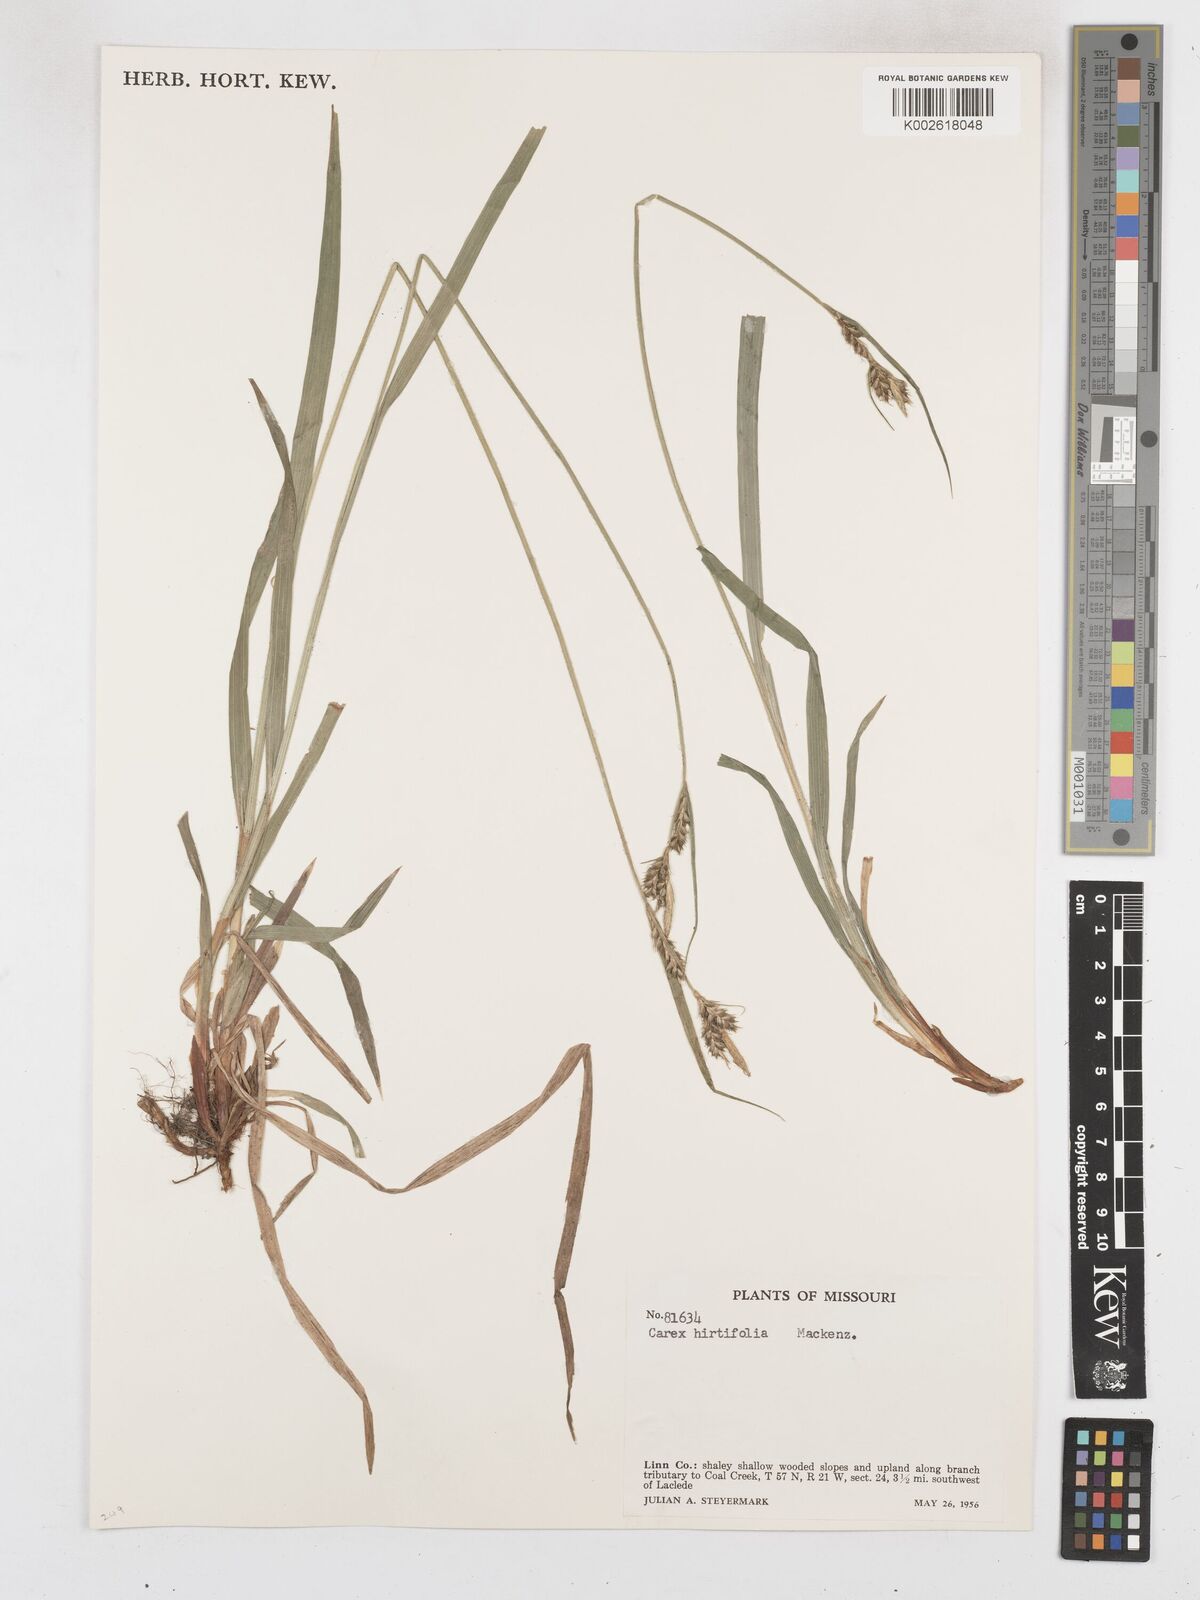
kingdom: Plantae
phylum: Tracheophyta
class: Liliopsida
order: Poales
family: Cyperaceae
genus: Carex
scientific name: Carex hirtifolia
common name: Hairy sedge
